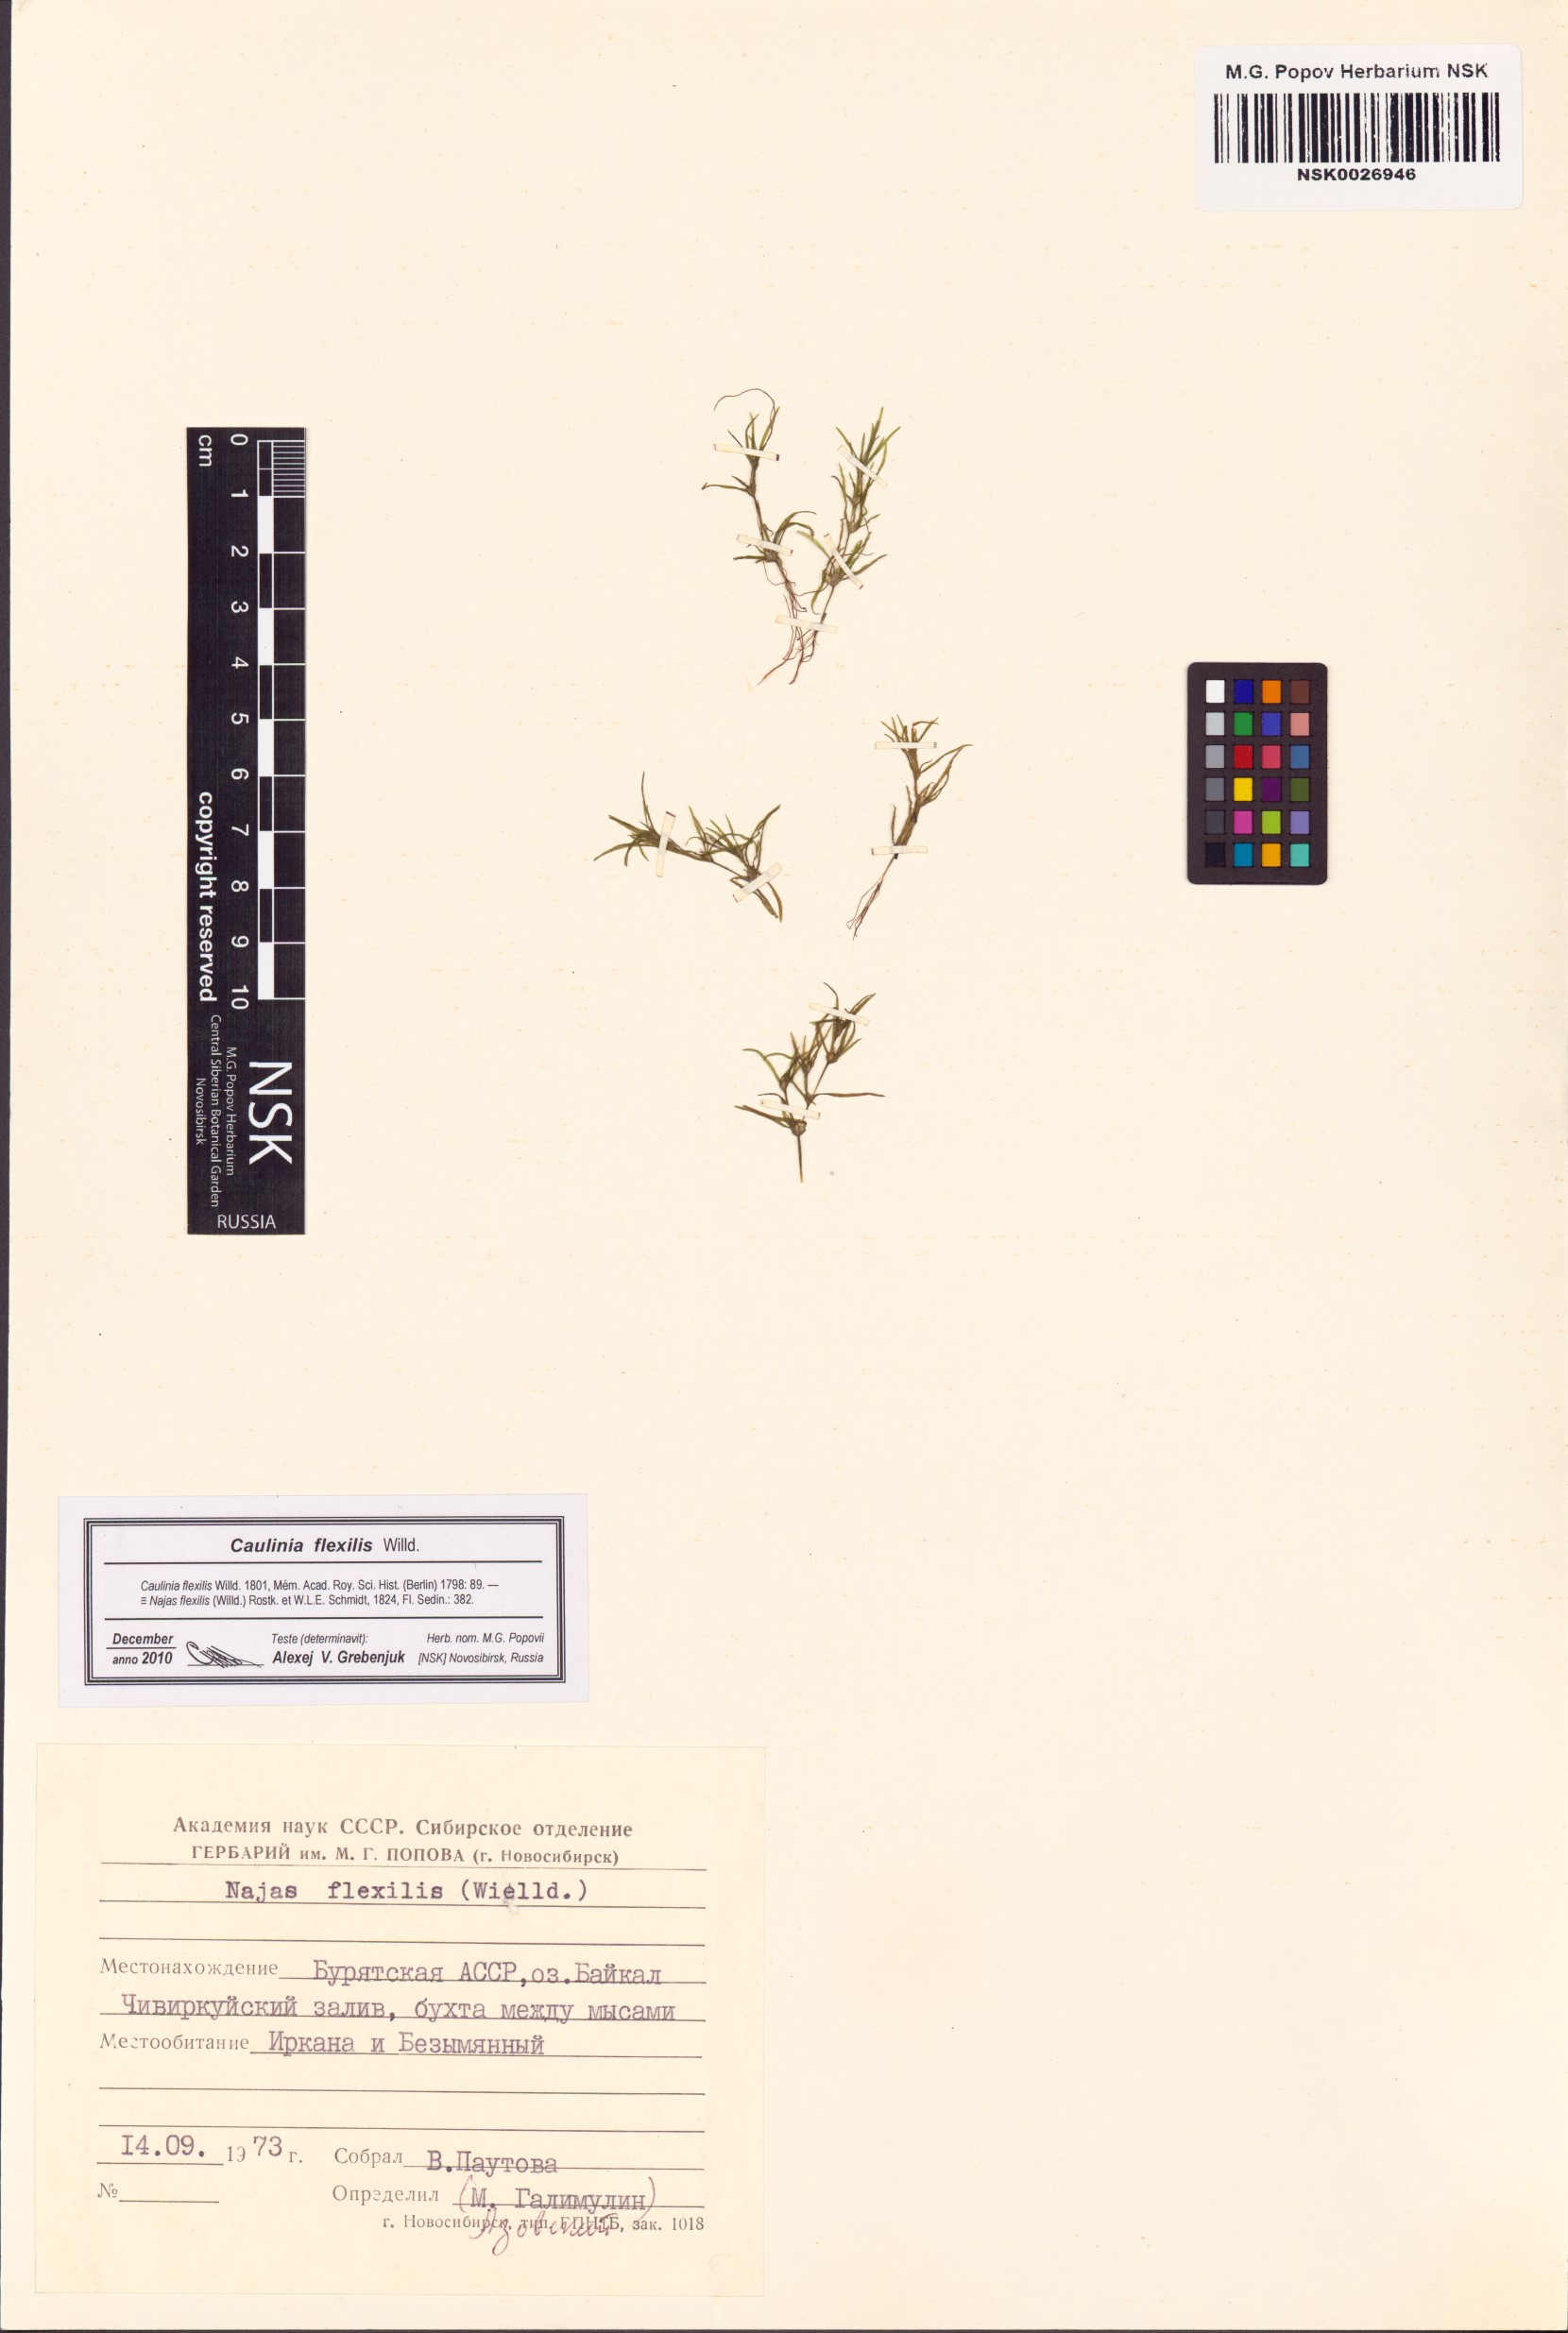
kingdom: Plantae
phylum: Tracheophyta
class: Liliopsida
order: Alismatales
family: Hydrocharitaceae
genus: Najas
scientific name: Najas flexilis
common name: Slender naiad
